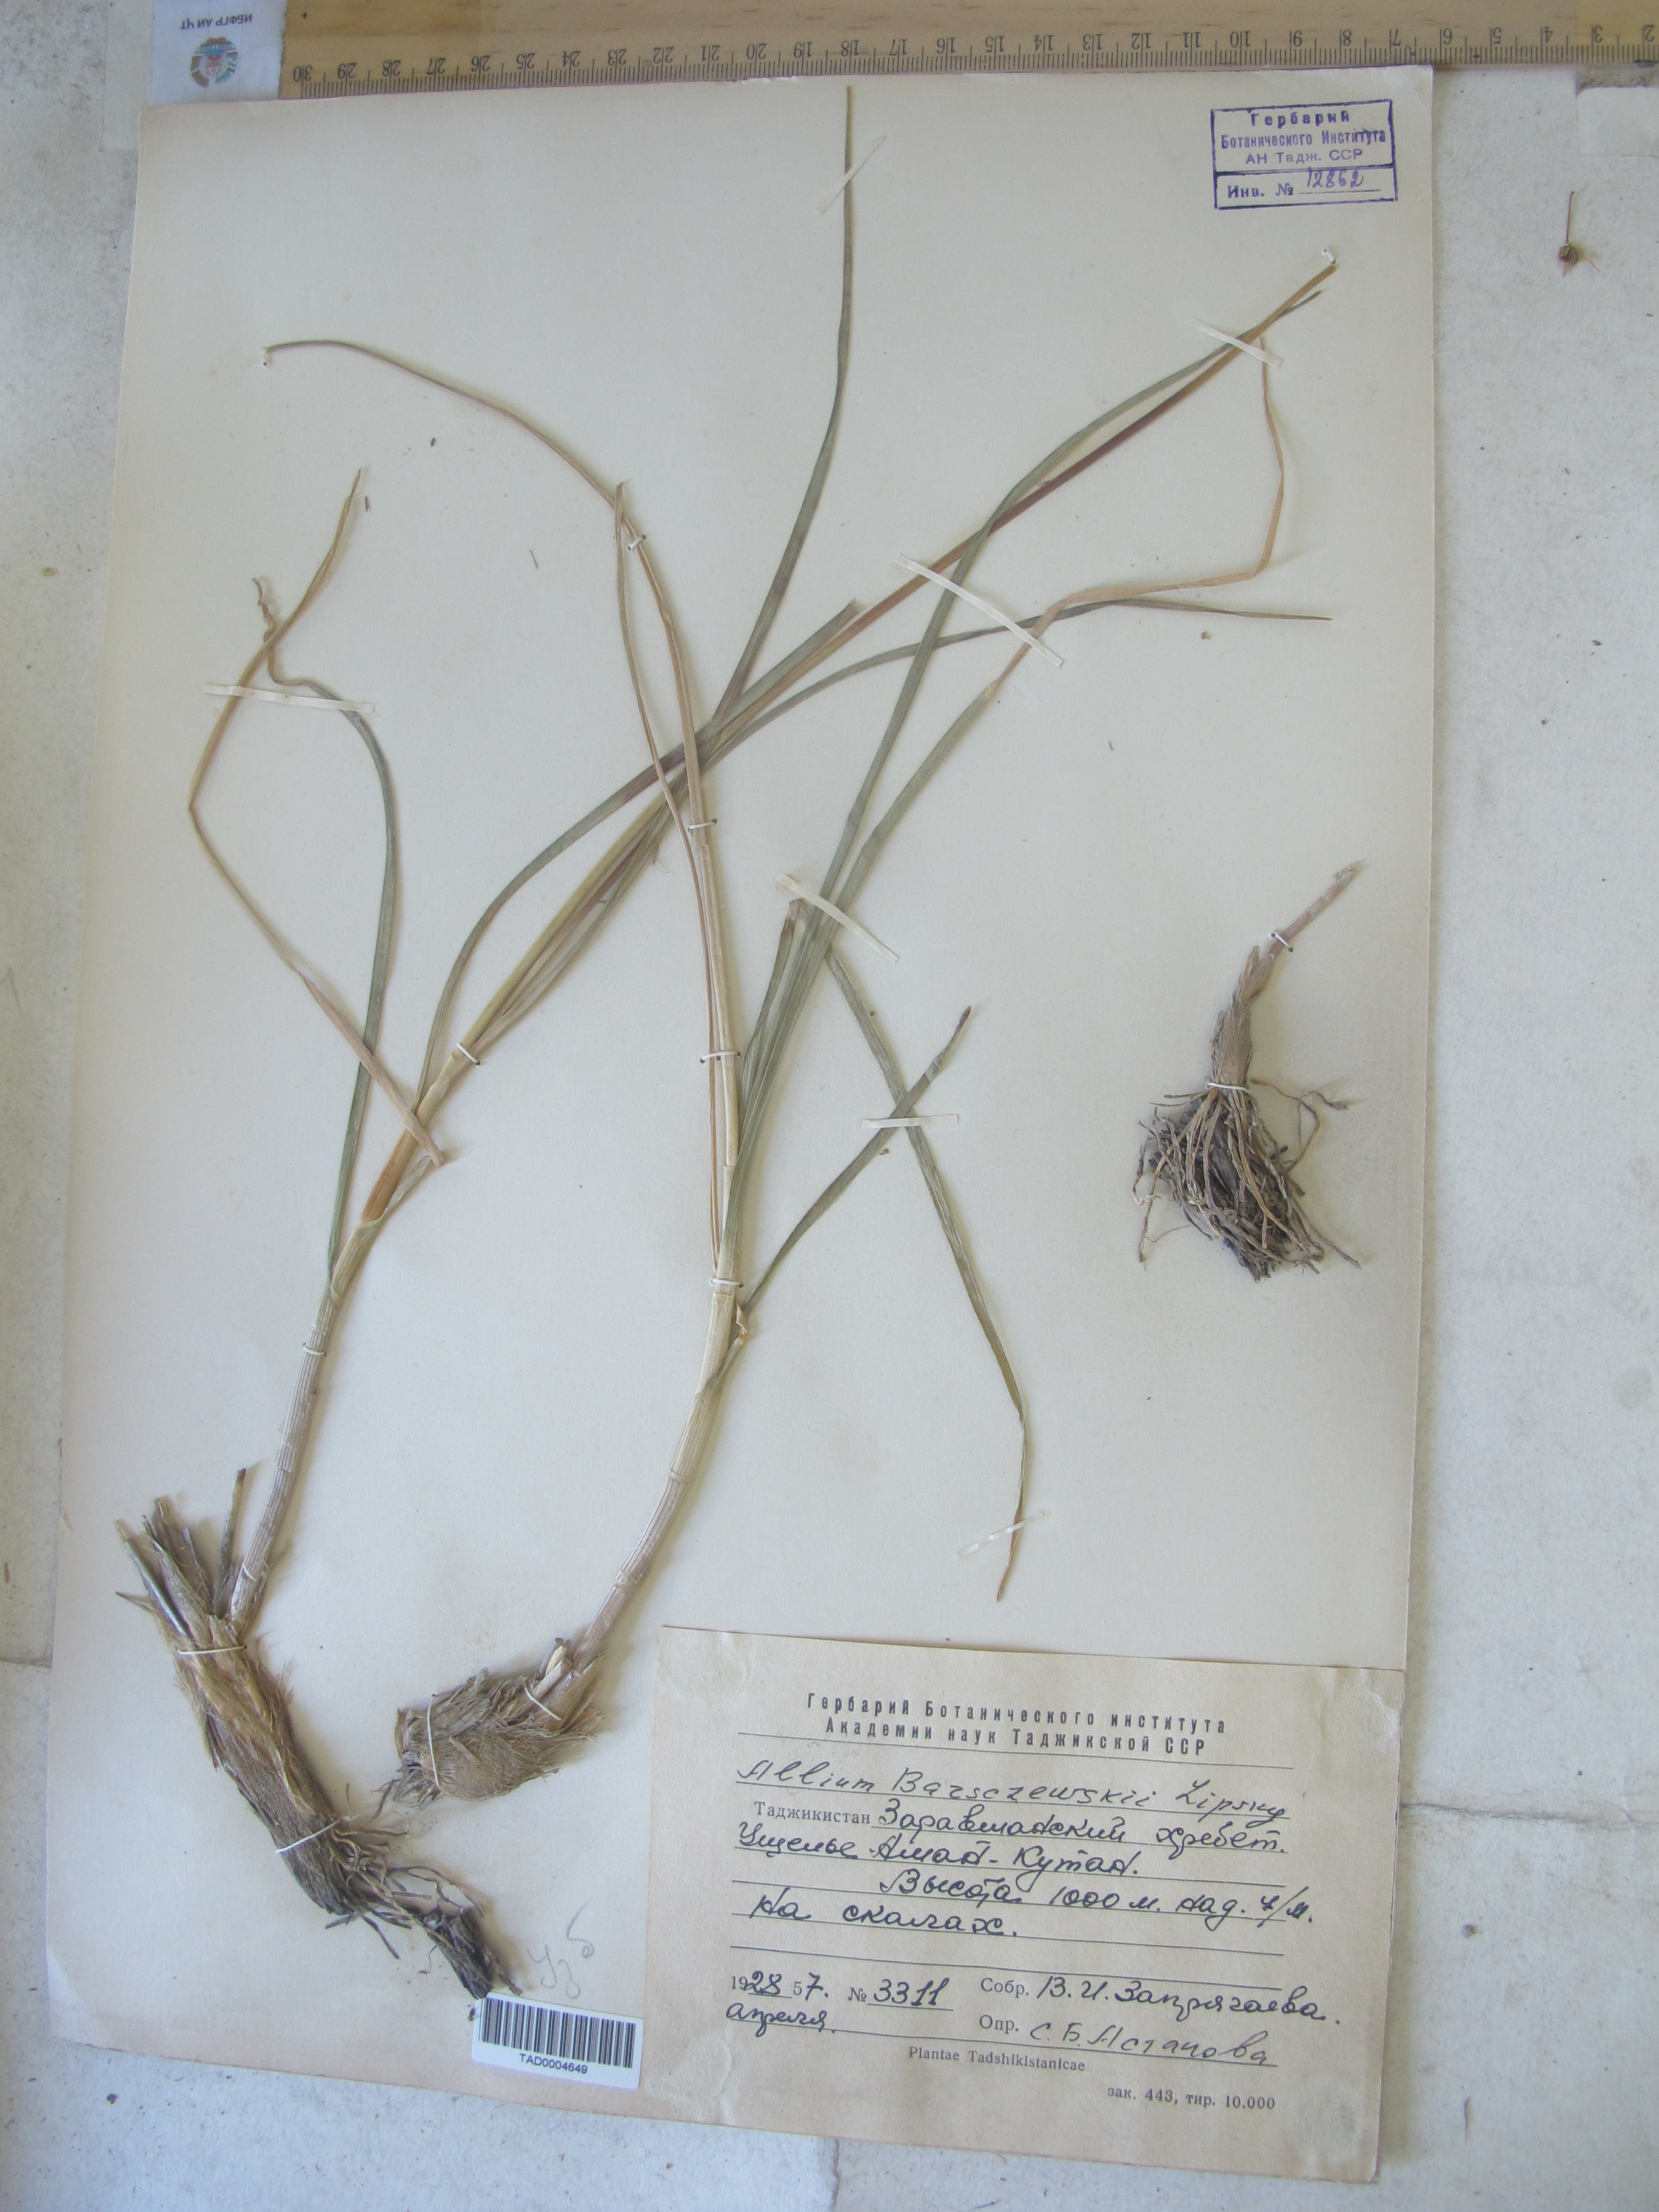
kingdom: Plantae
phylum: Tracheophyta
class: Liliopsida
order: Asparagales
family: Amaryllidaceae
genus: Allium
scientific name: Allium barsczewskii
